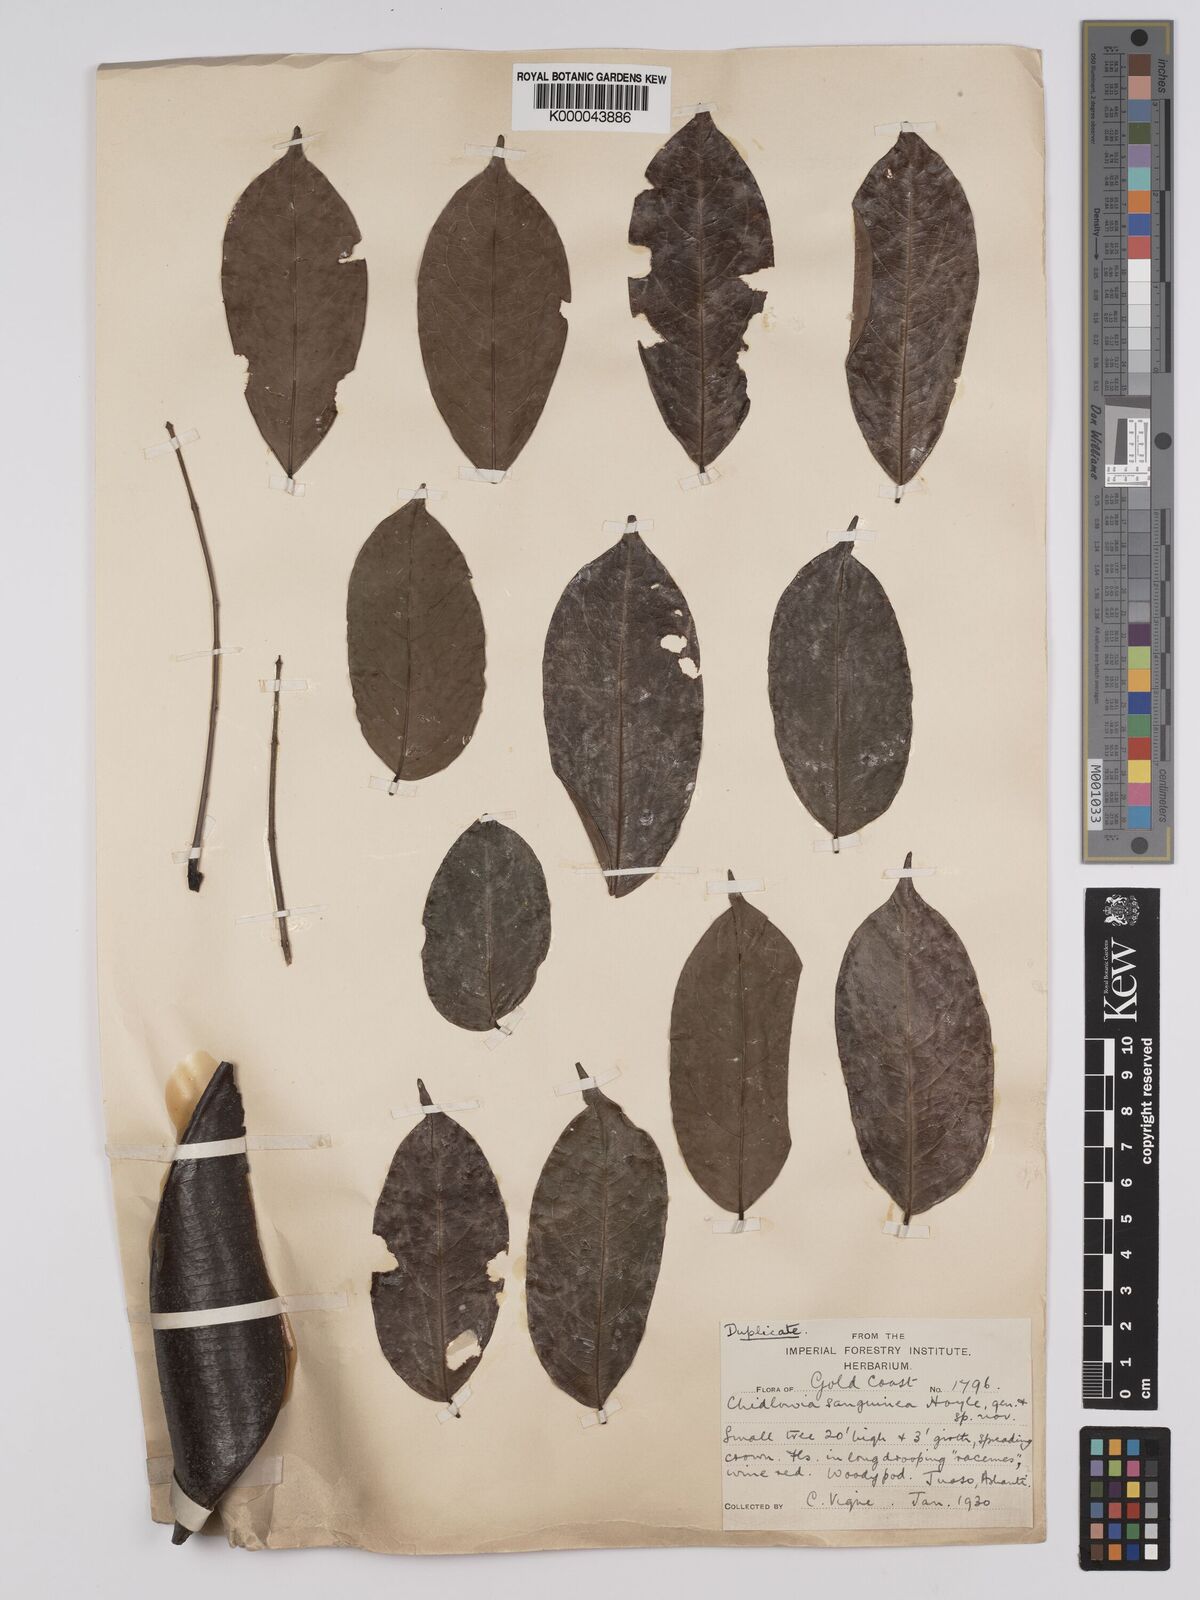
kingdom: Plantae
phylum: Tracheophyta
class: Magnoliopsida
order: Fabales
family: Fabaceae
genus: Chidlowia
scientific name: Chidlowia sanguinea
